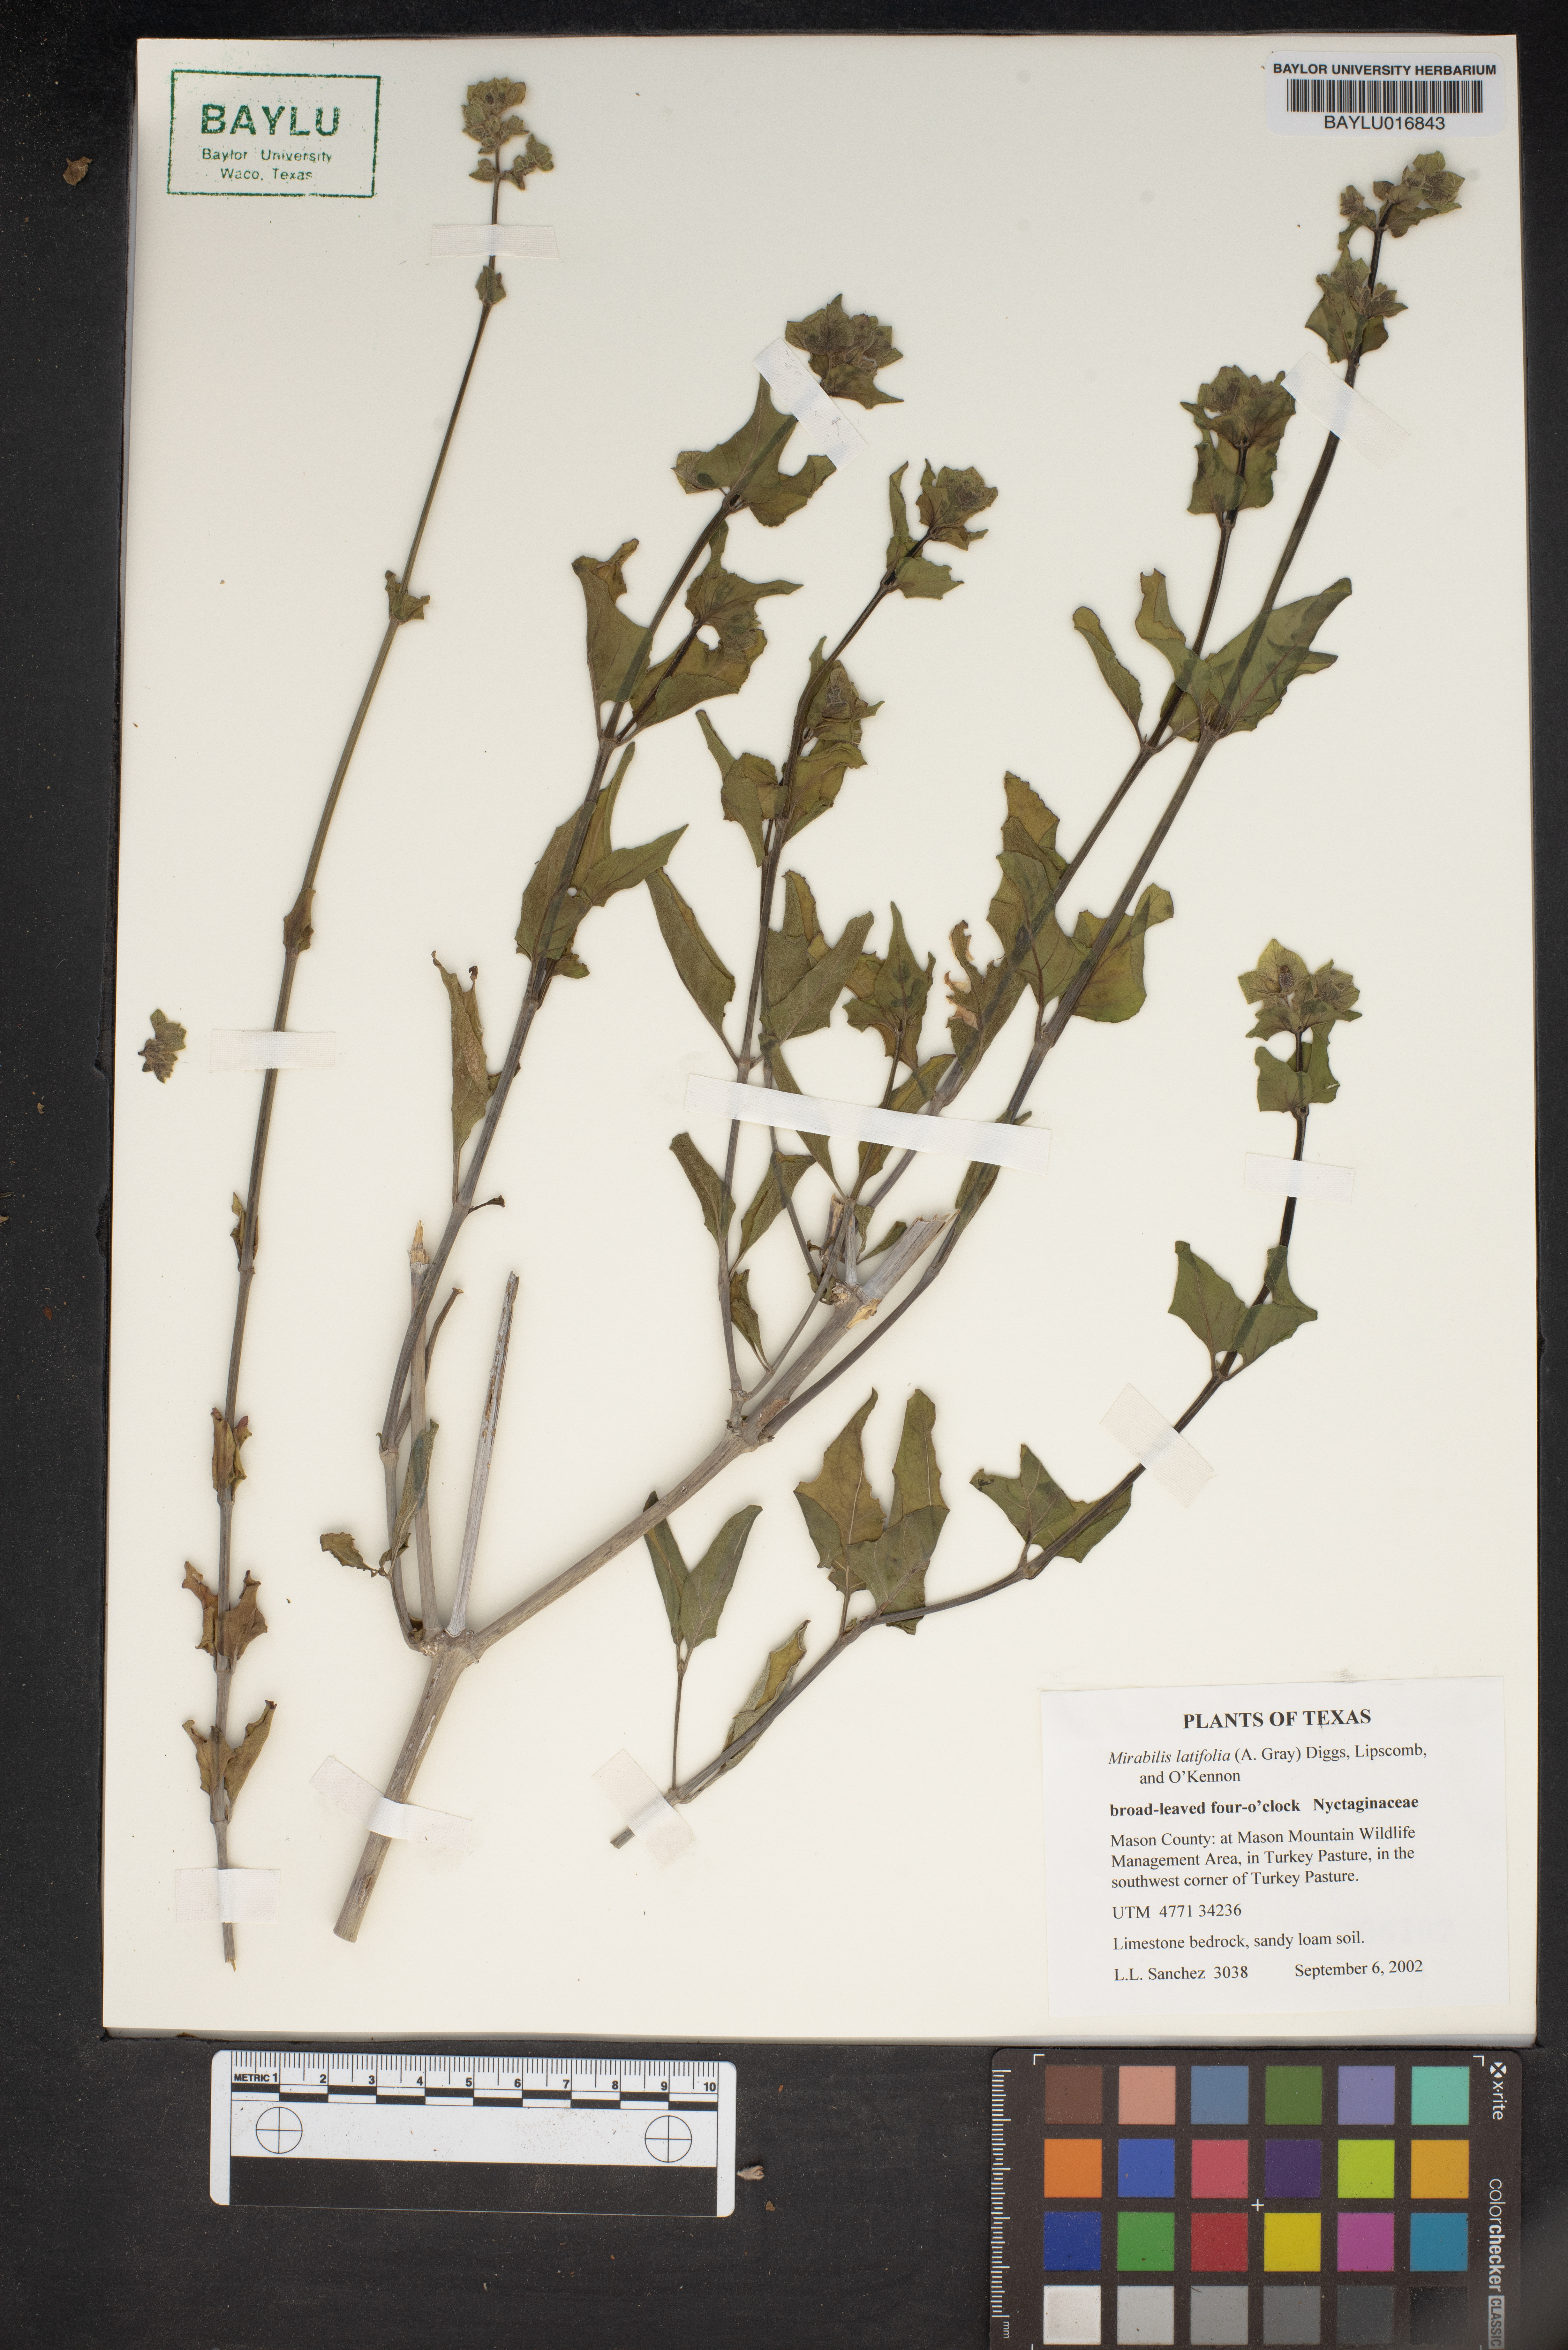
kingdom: Plantae
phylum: Tracheophyta
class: Magnoliopsida
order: Caryophyllales
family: Nyctaginaceae
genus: Mirabilis
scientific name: Mirabilis latifolia
